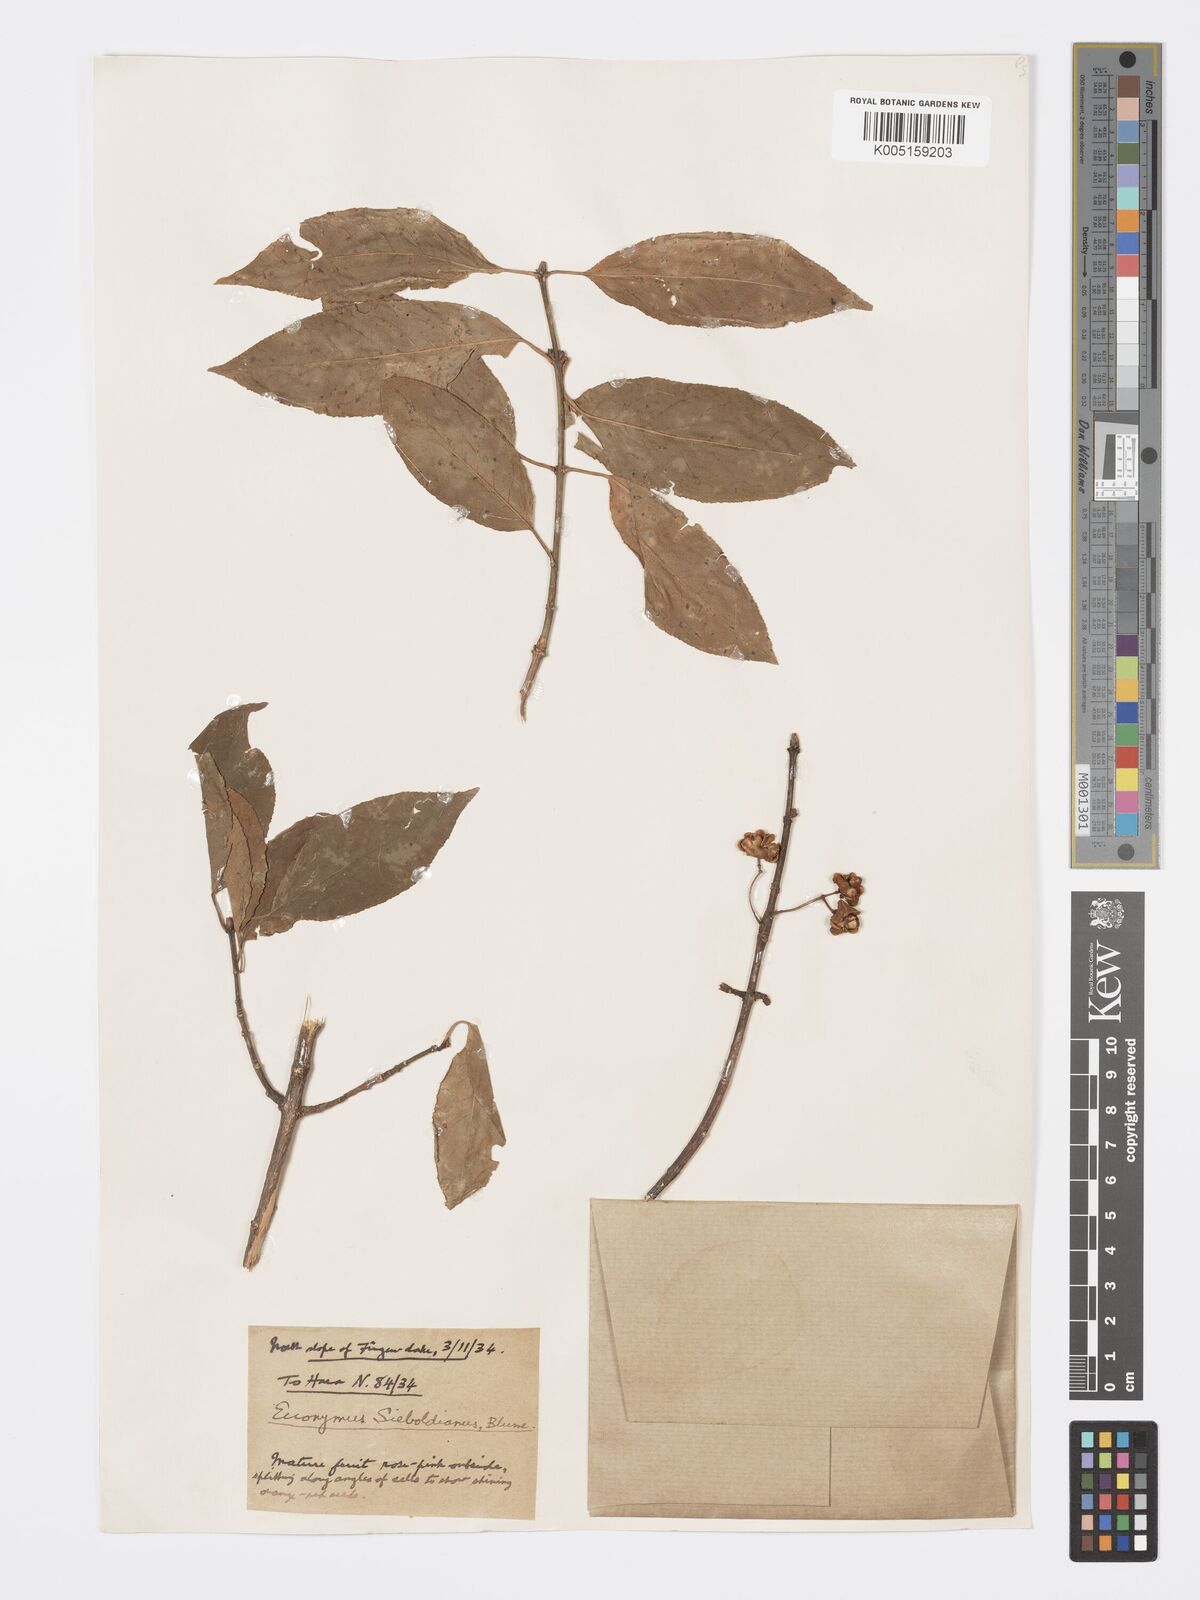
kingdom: Plantae
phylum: Tracheophyta
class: Magnoliopsida
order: Celastrales
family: Celastraceae
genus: Euonymus
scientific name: Euonymus hamiltonianus
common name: Hamilton's spindletree
